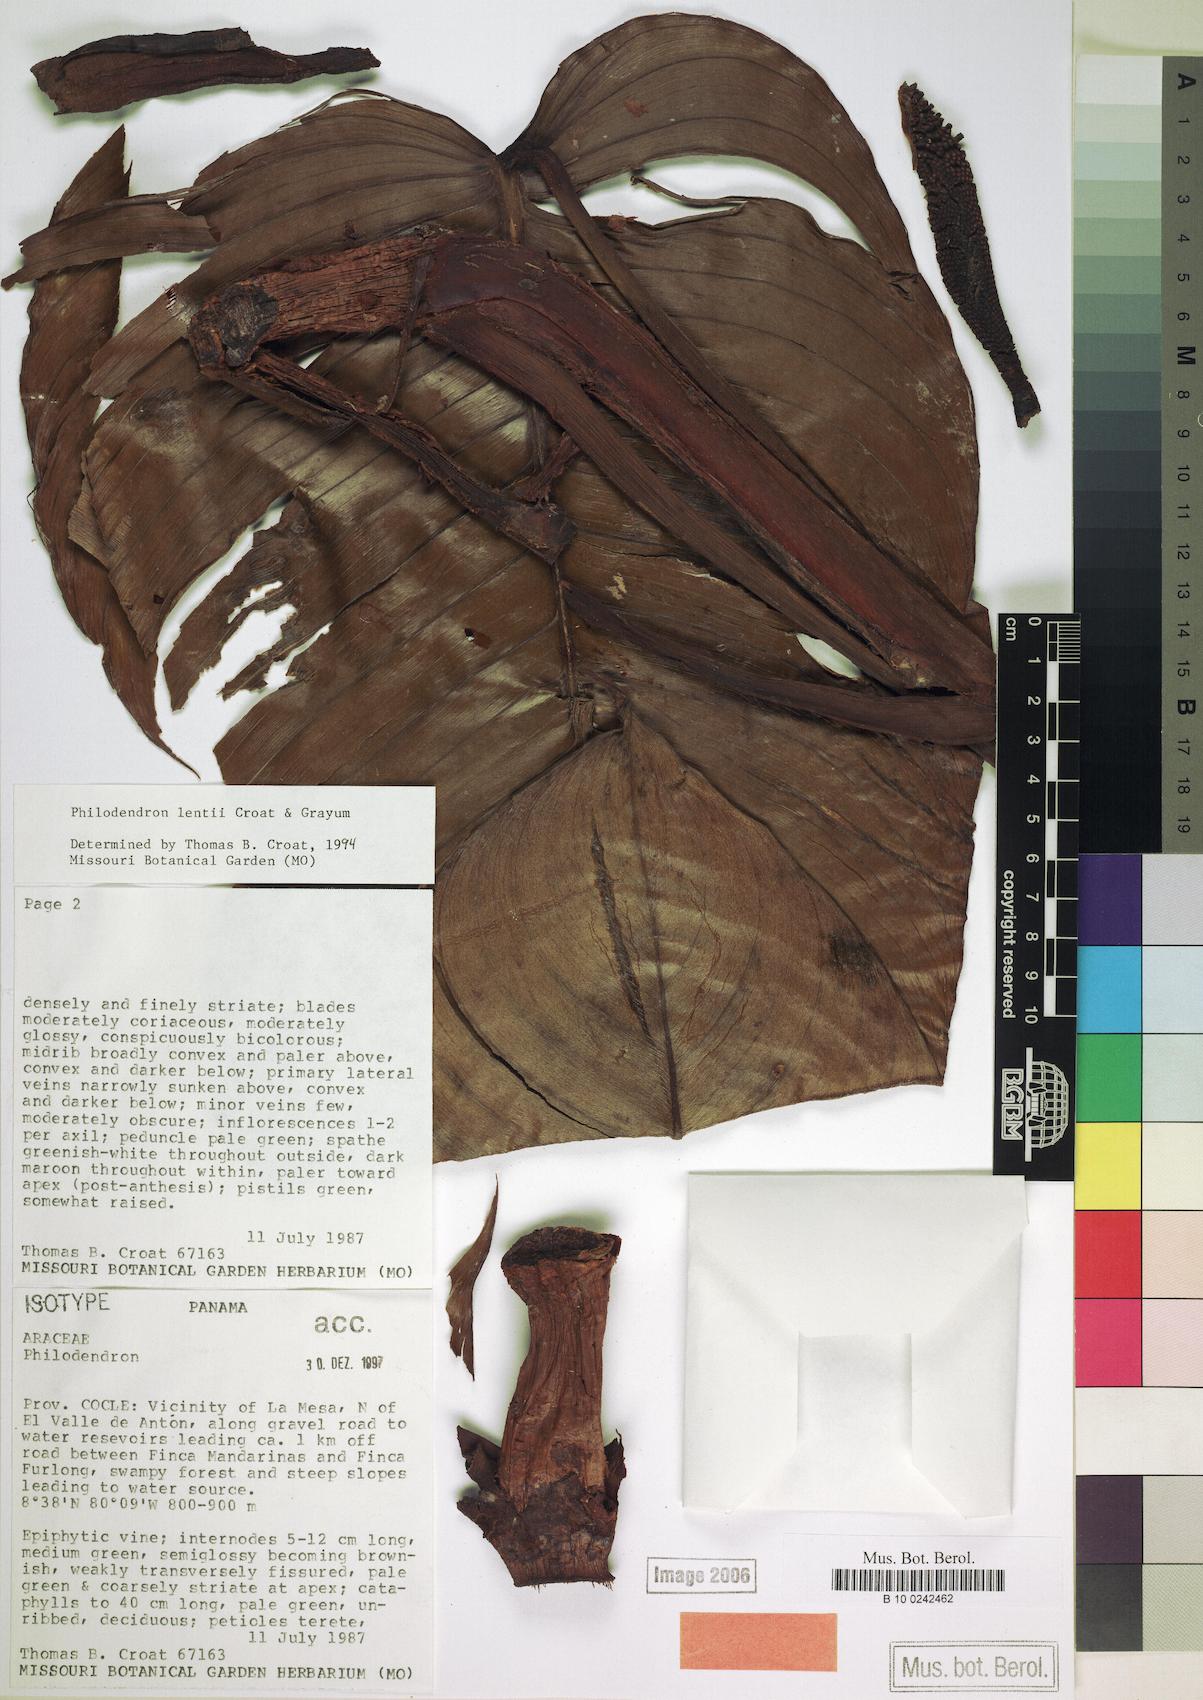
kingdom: Plantae
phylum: Tracheophyta
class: Liliopsida
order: Alismatales
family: Araceae
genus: Philodendron
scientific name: Philodendron lentii
